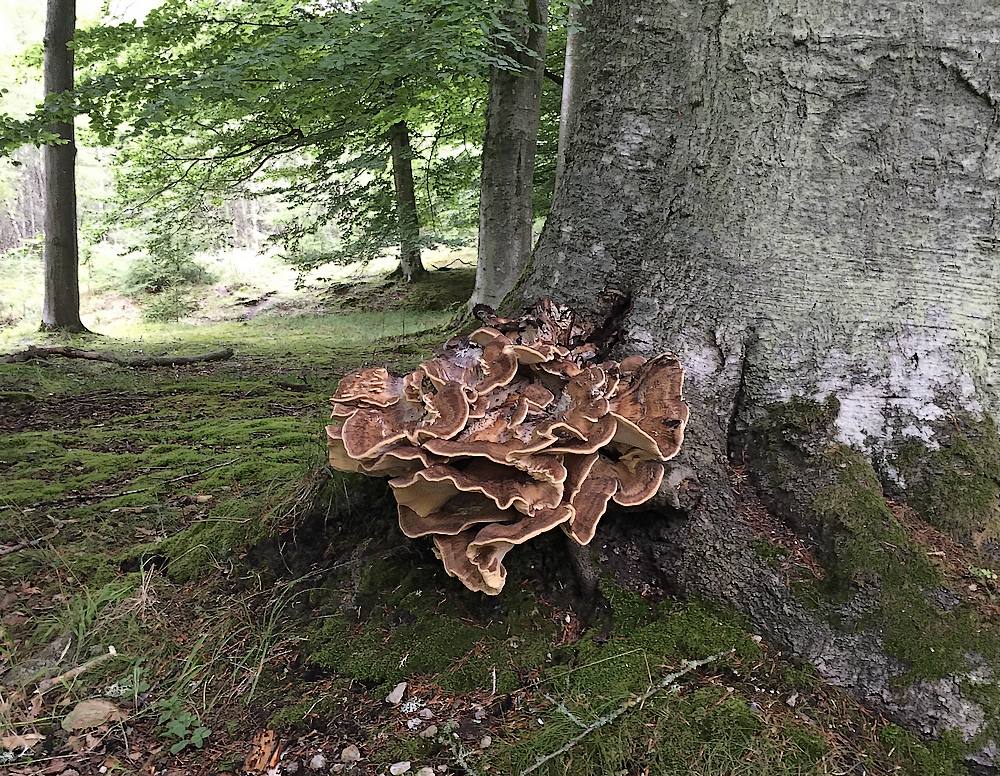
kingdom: Fungi
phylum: Basidiomycota
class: Agaricomycetes
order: Polyporales
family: Meripilaceae
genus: Meripilus
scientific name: Meripilus giganteus
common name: kæmpeporesvamp
